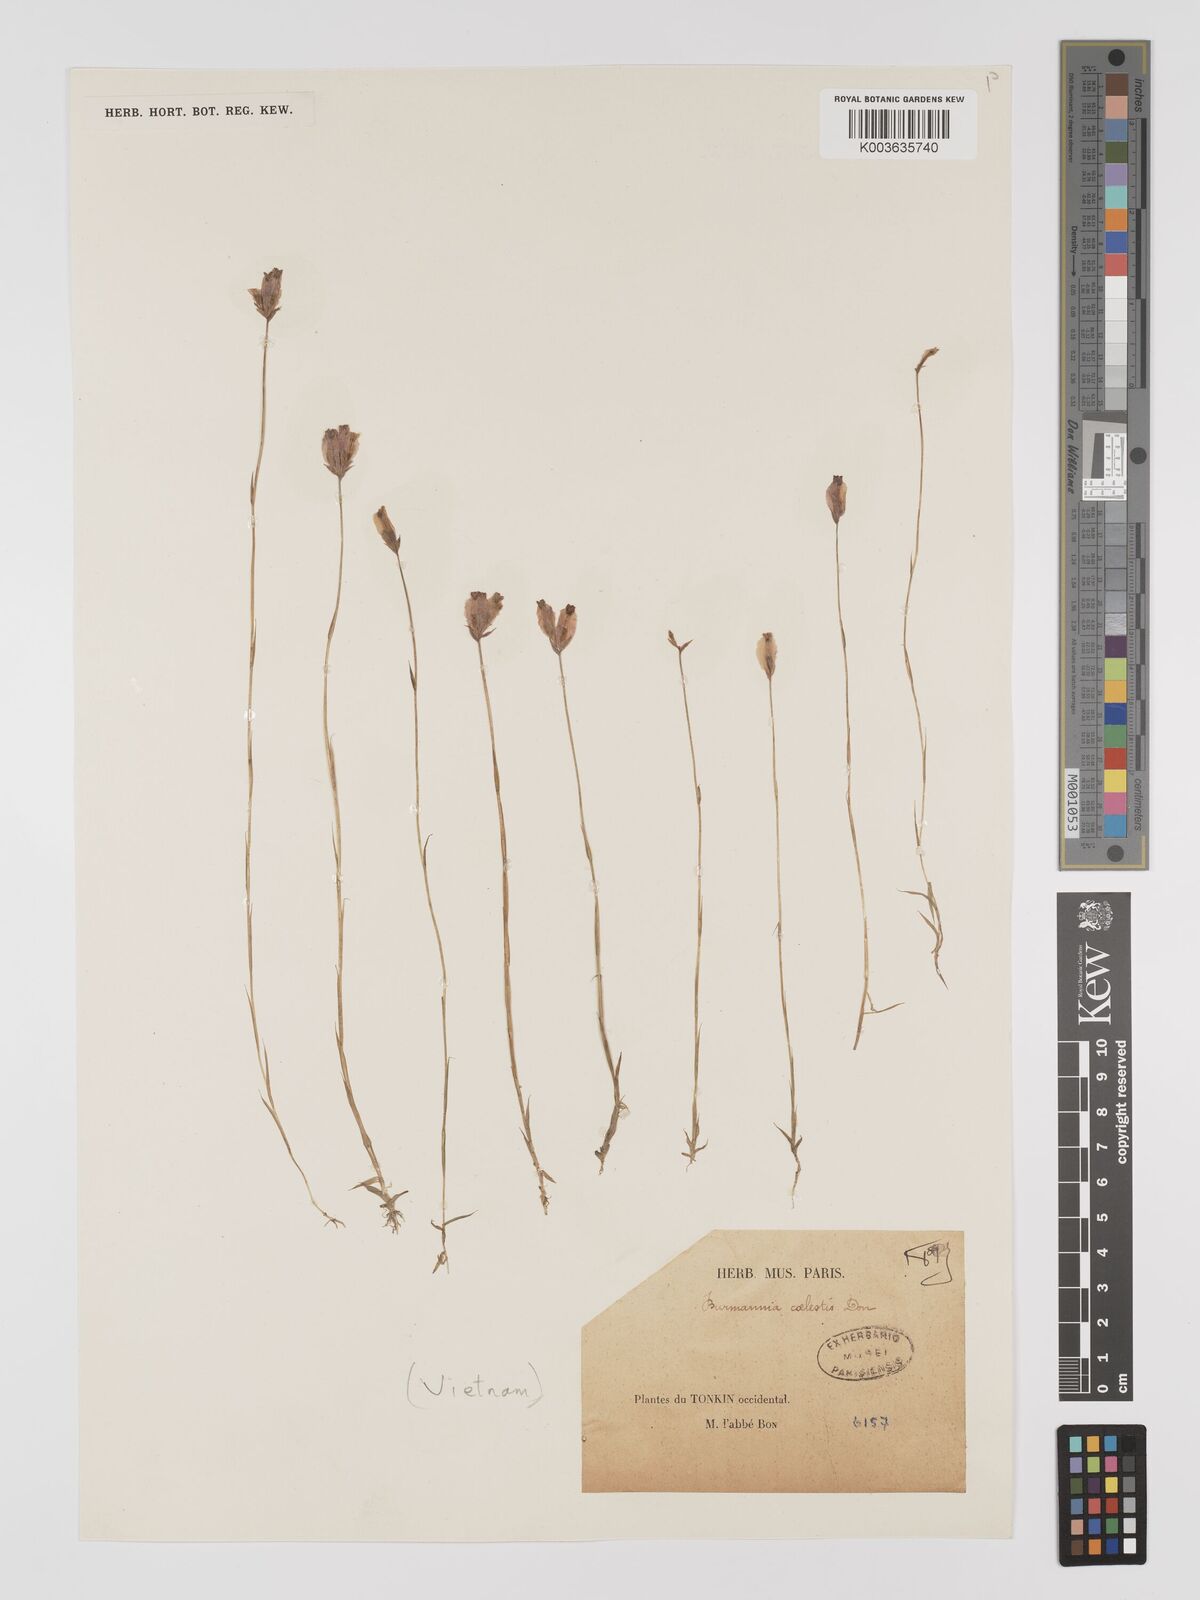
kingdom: Plantae
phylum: Tracheophyta
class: Liliopsida
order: Dioscoreales
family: Burmanniaceae
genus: Burmannia
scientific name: Burmannia coelestis
